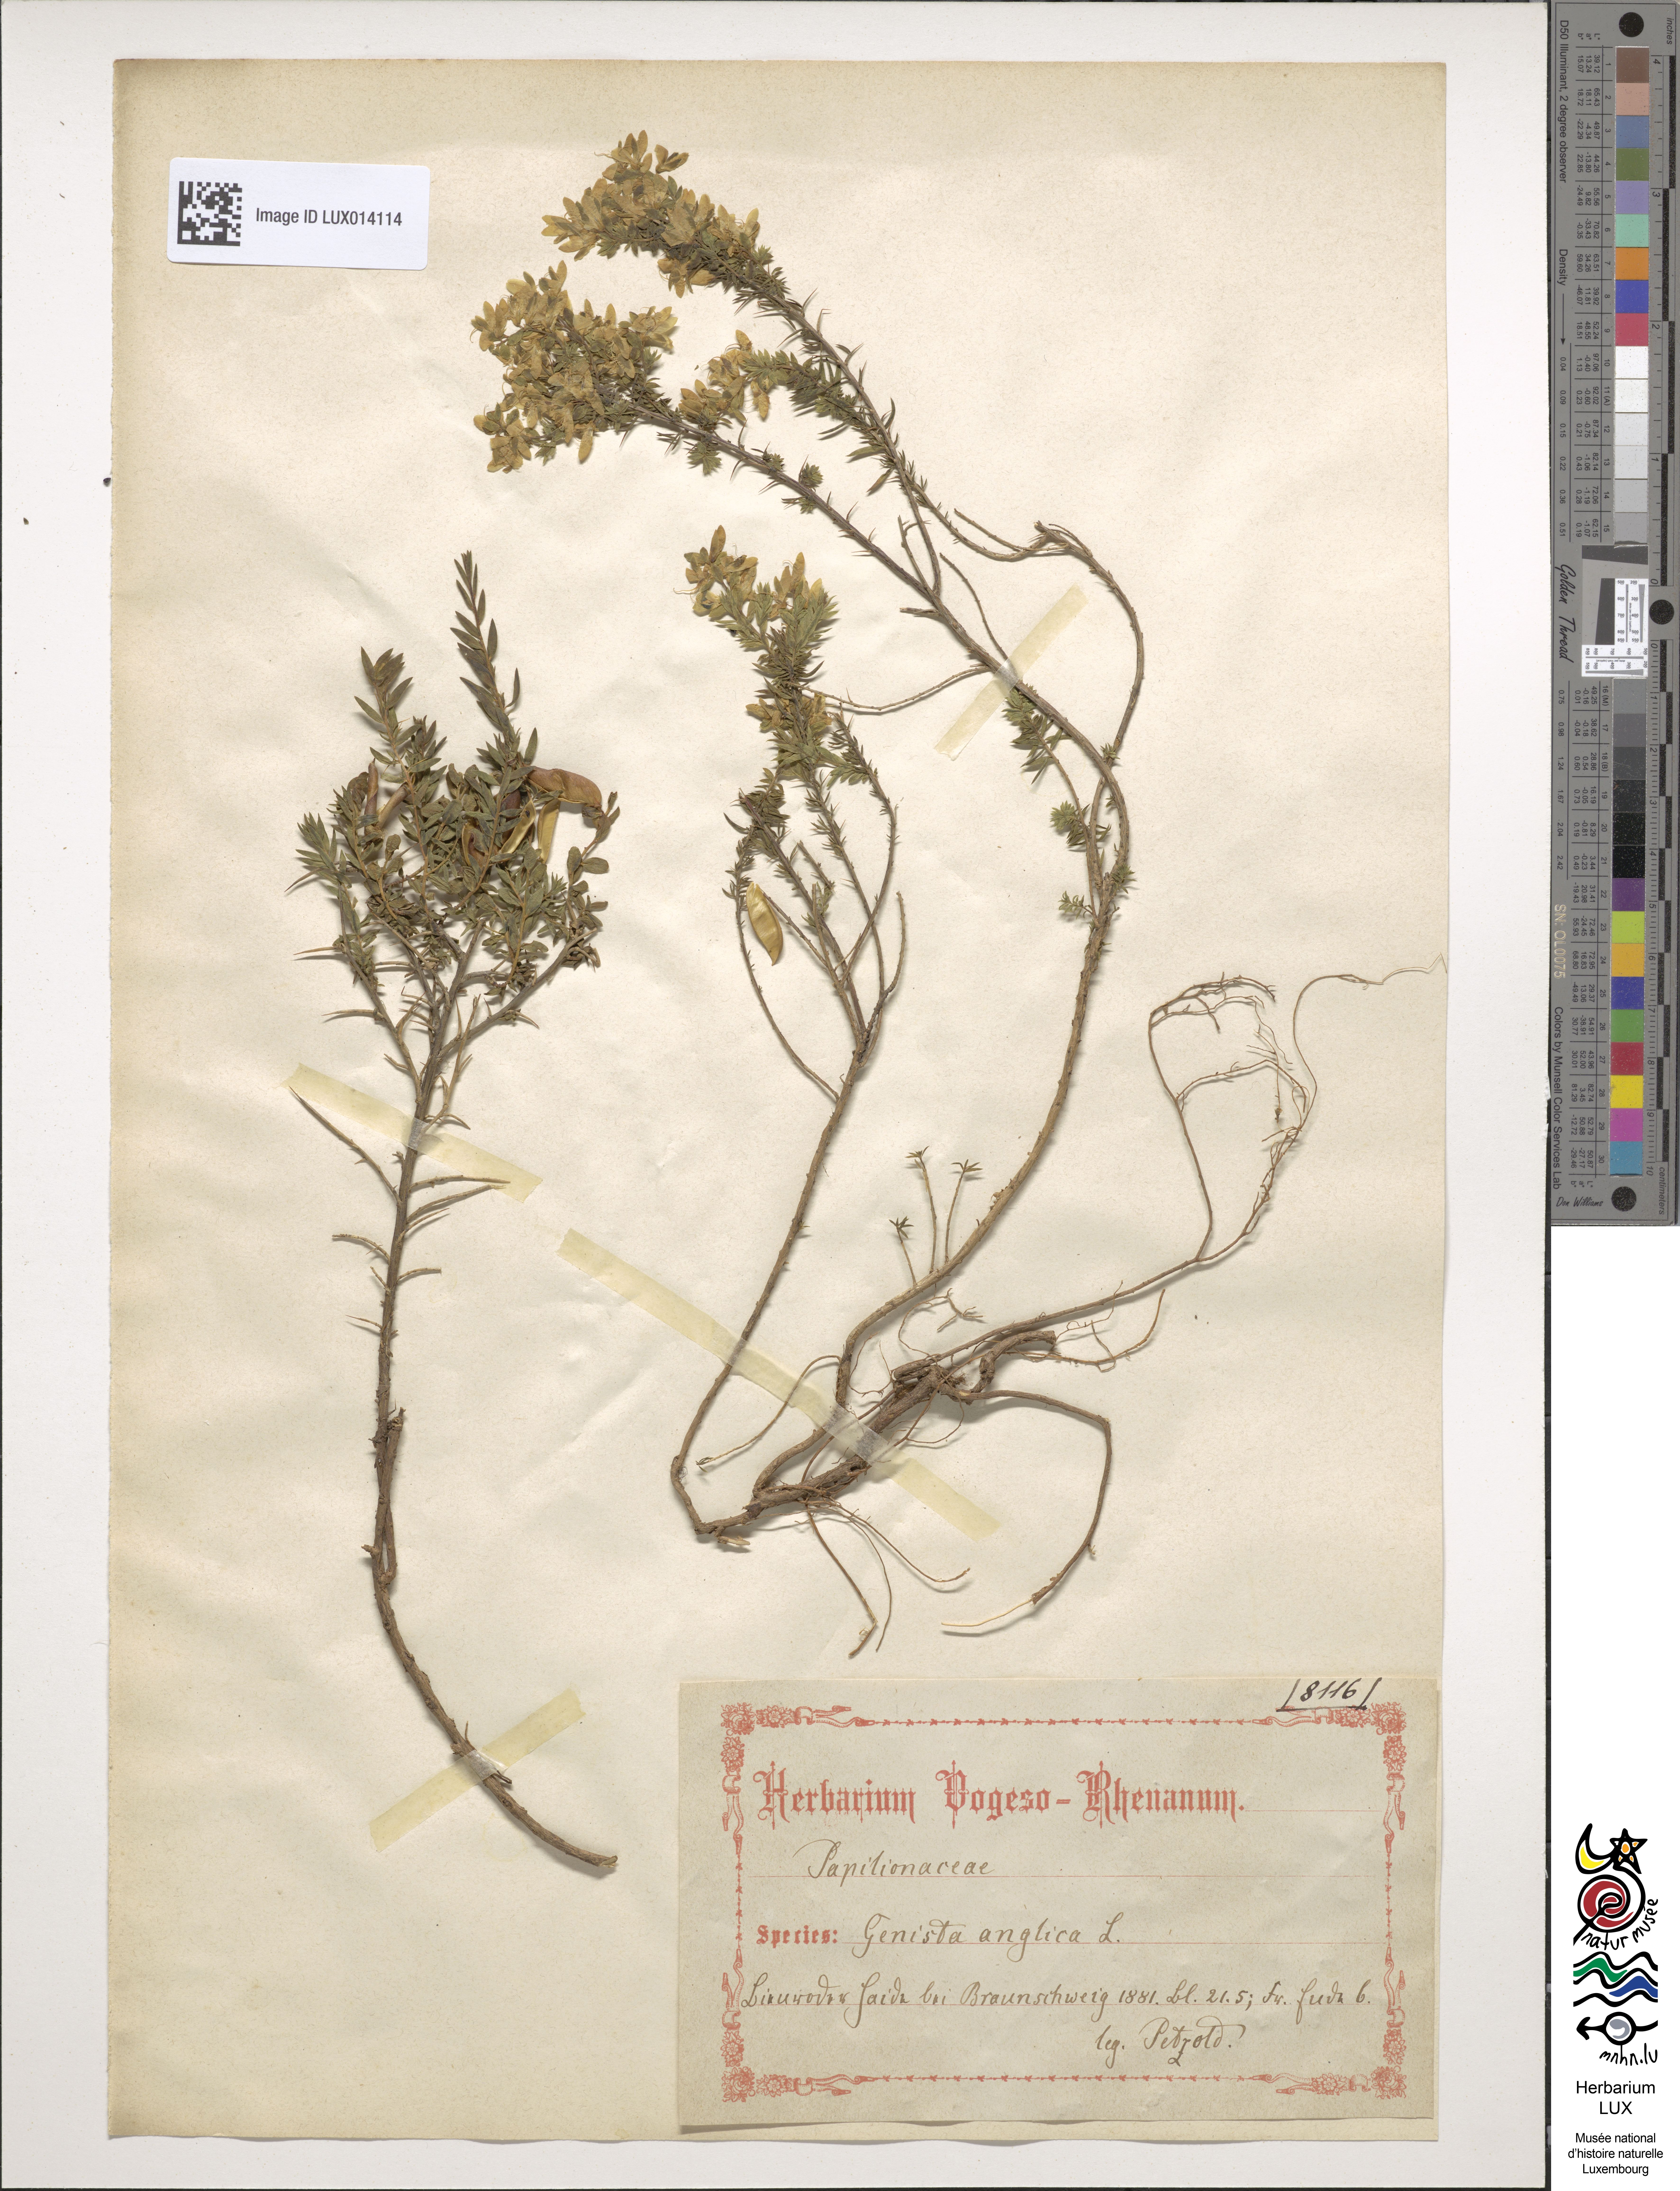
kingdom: Plantae
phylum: Tracheophyta
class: Magnoliopsida
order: Fabales
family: Fabaceae
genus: Genista
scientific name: Genista anglica
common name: Petty whin
